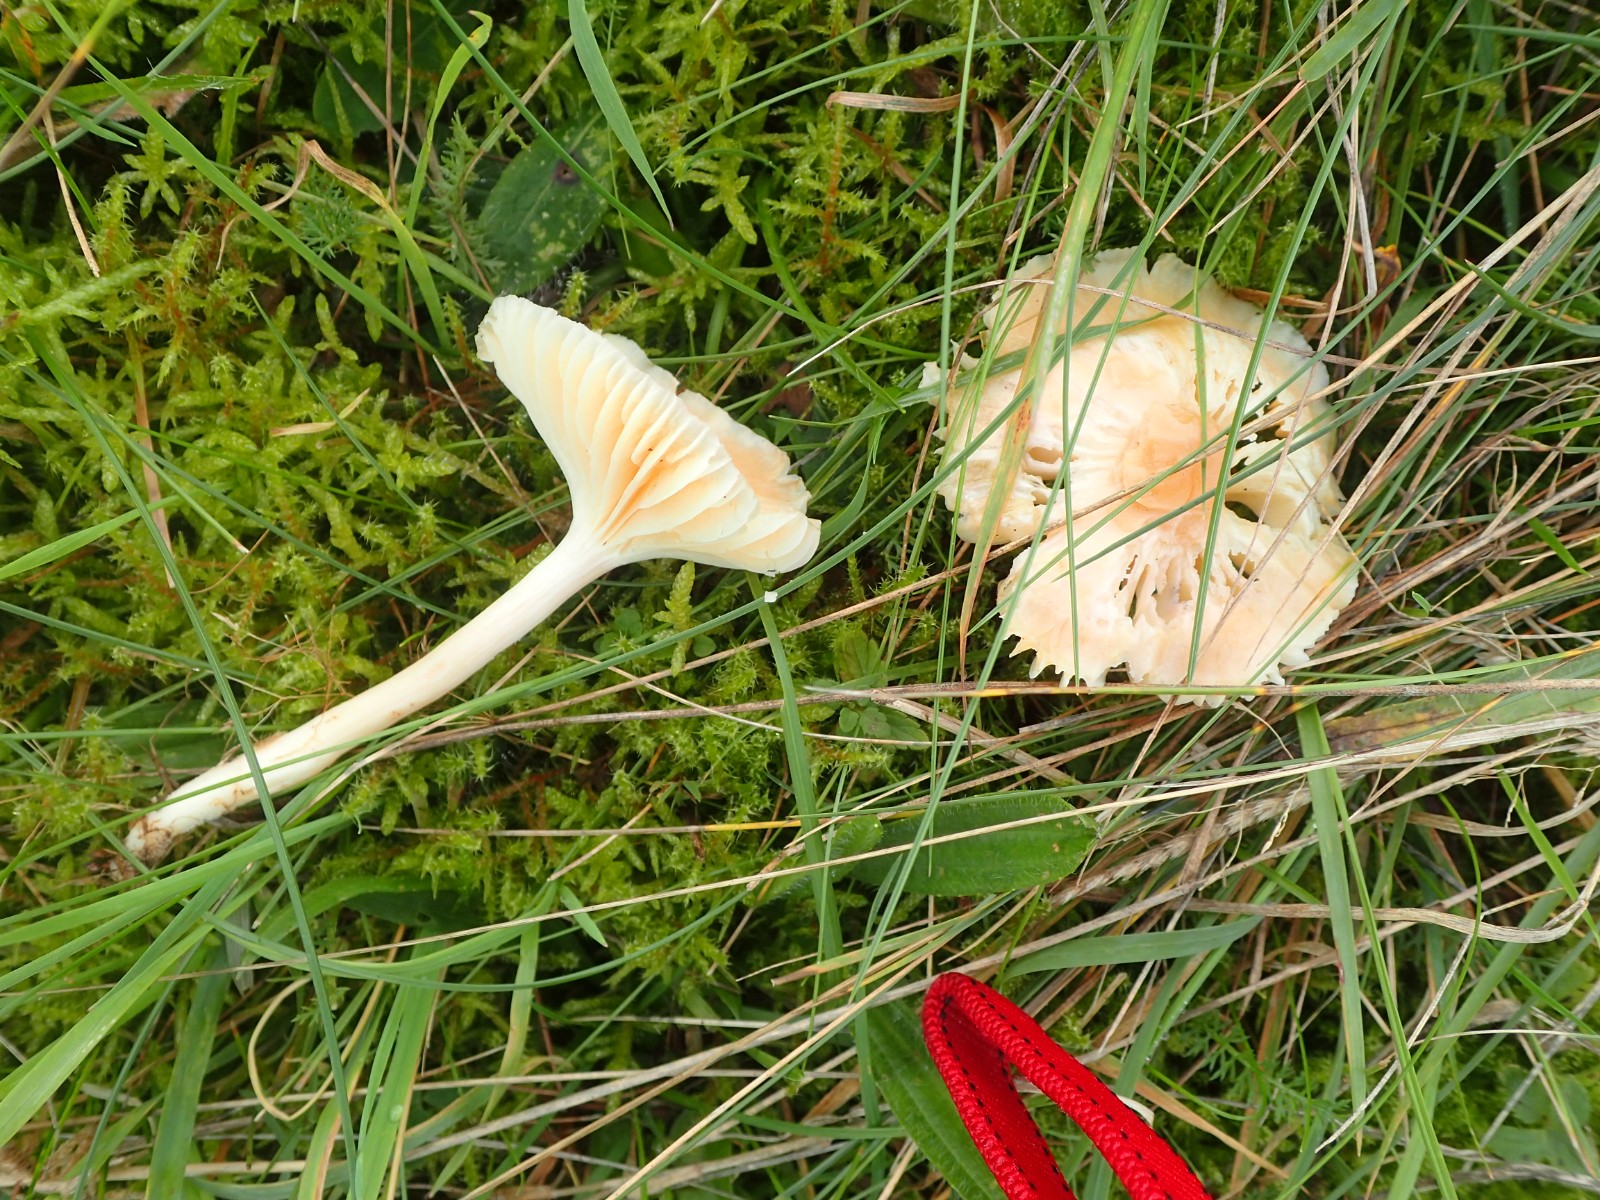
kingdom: Fungi
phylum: Basidiomycota
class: Agaricomycetes
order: Agaricales
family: Hygrophoraceae
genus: Cuphophyllus
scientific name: Cuphophyllus pratensis
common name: eng-vokshat
